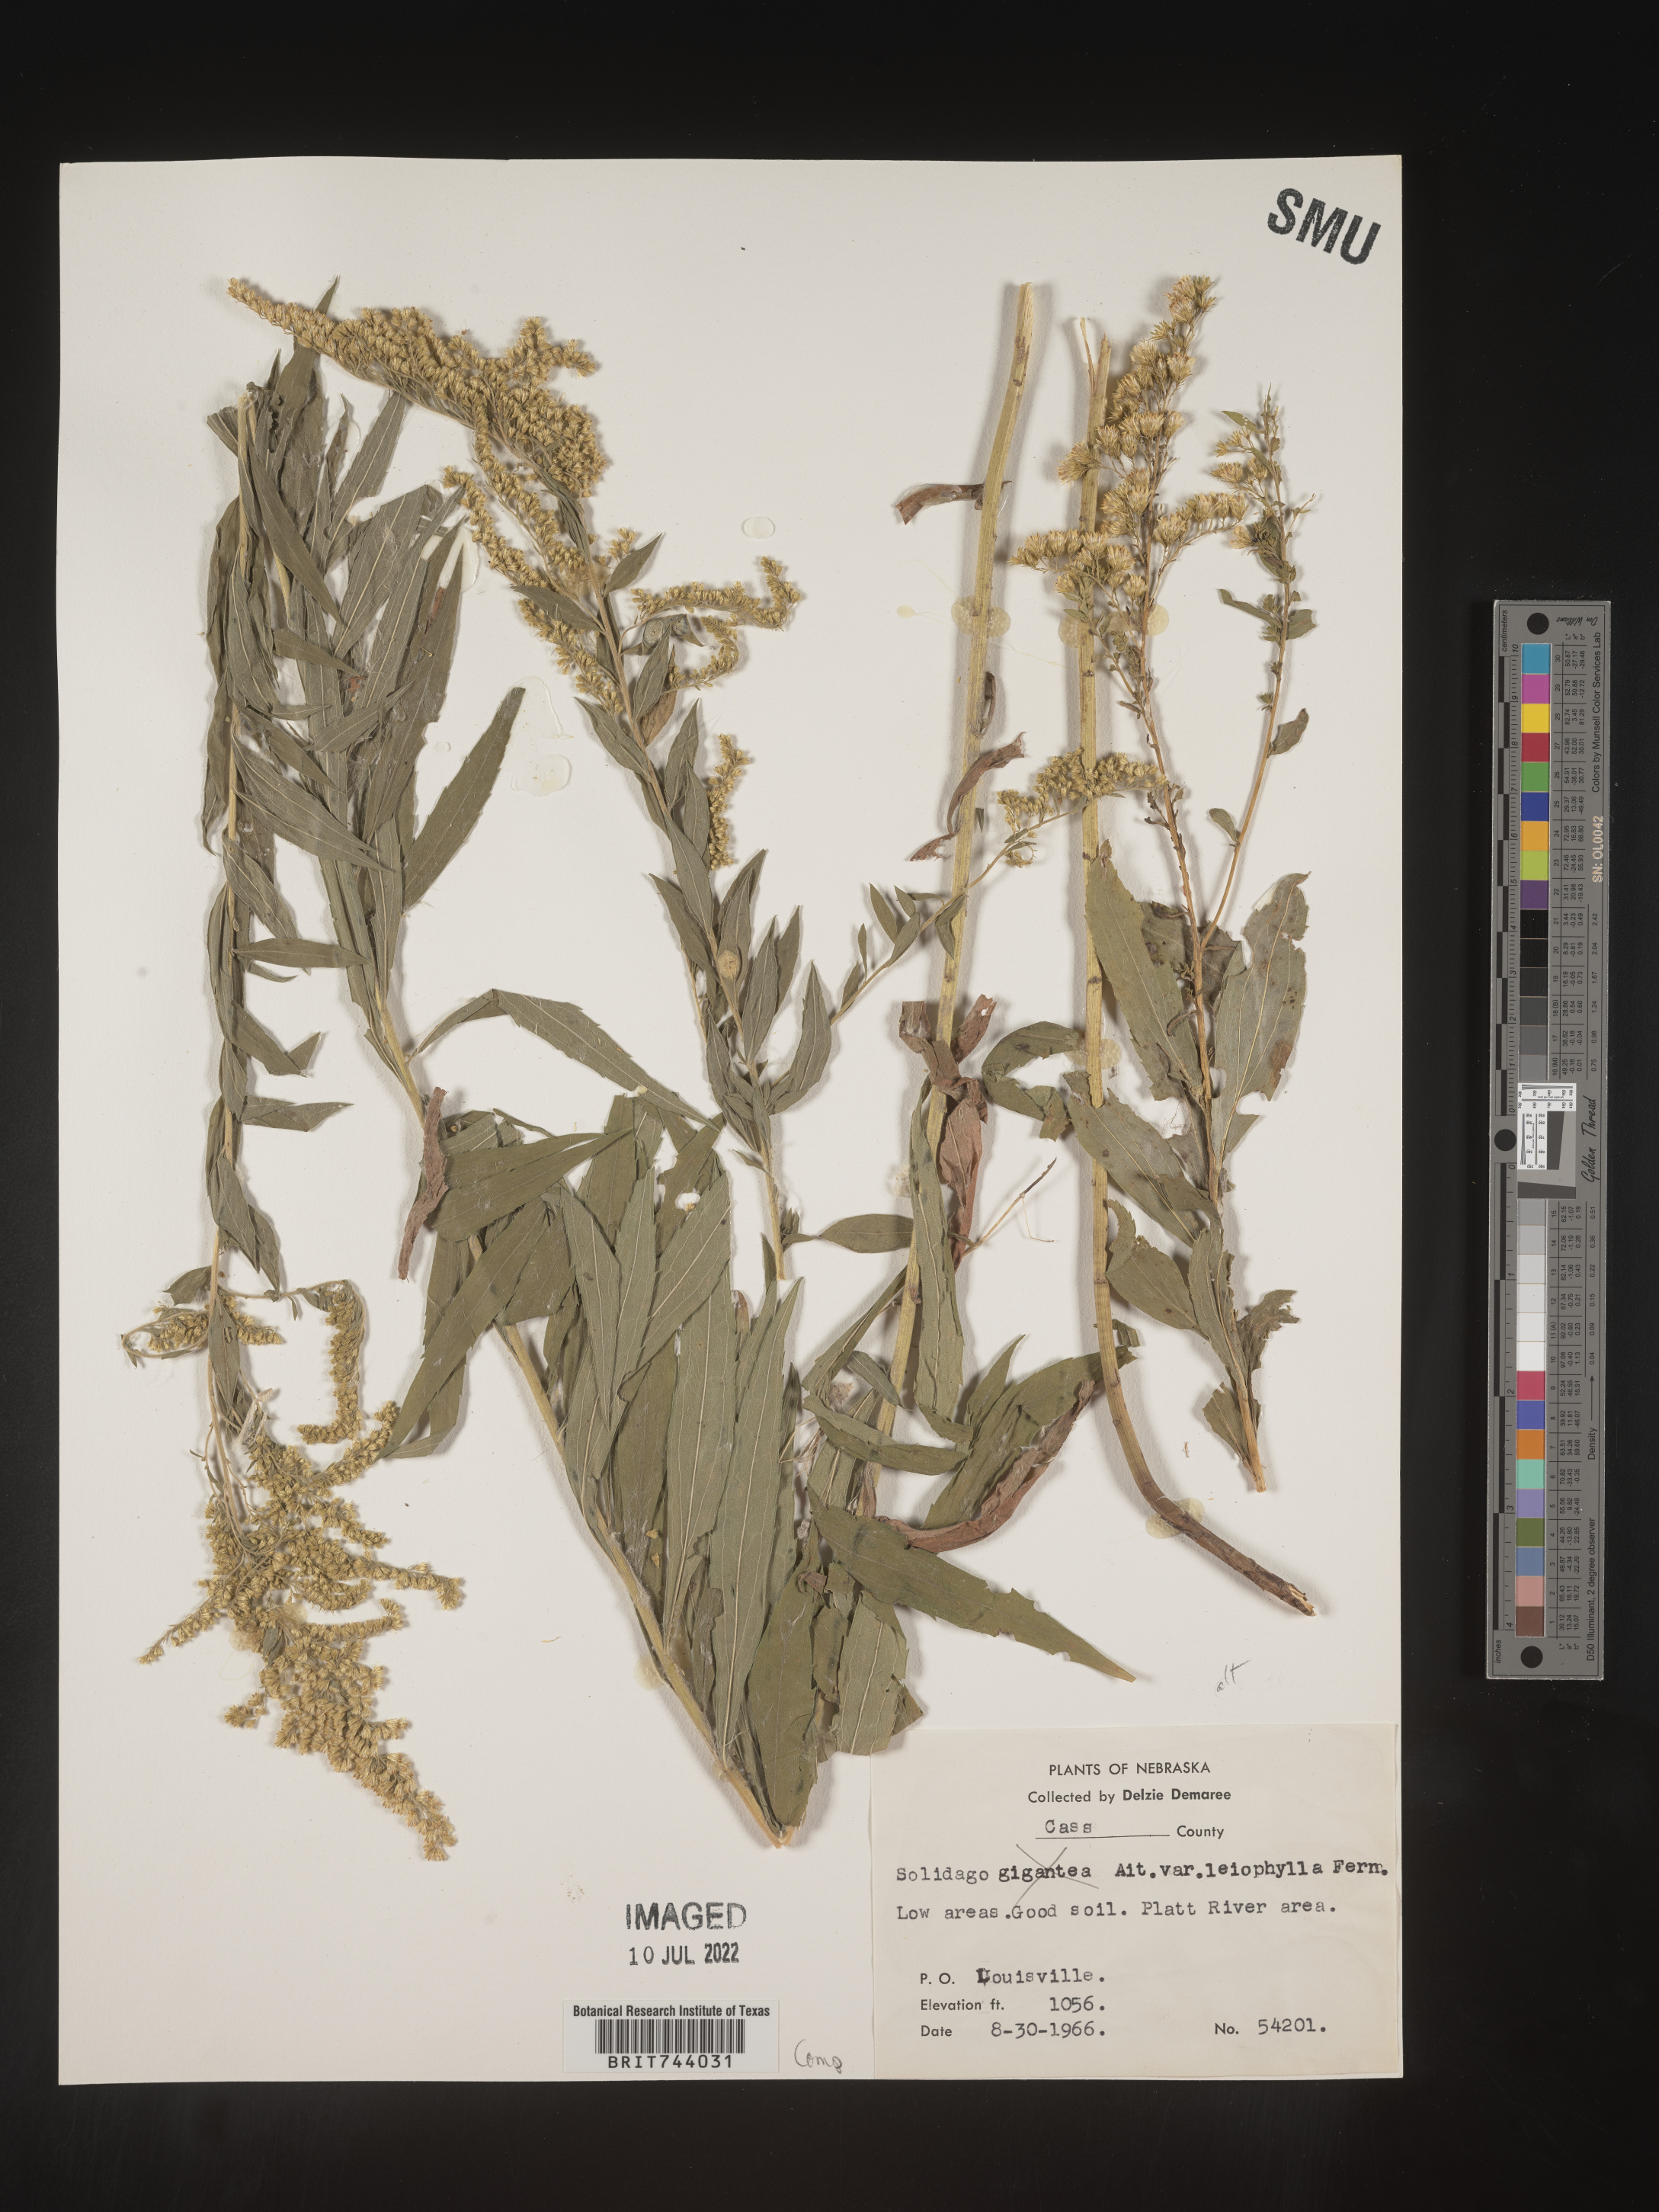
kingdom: Plantae
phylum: Tracheophyta
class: Magnoliopsida
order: Asterales
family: Asteraceae
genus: Solidago
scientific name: Solidago altissima
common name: Late goldenrod
